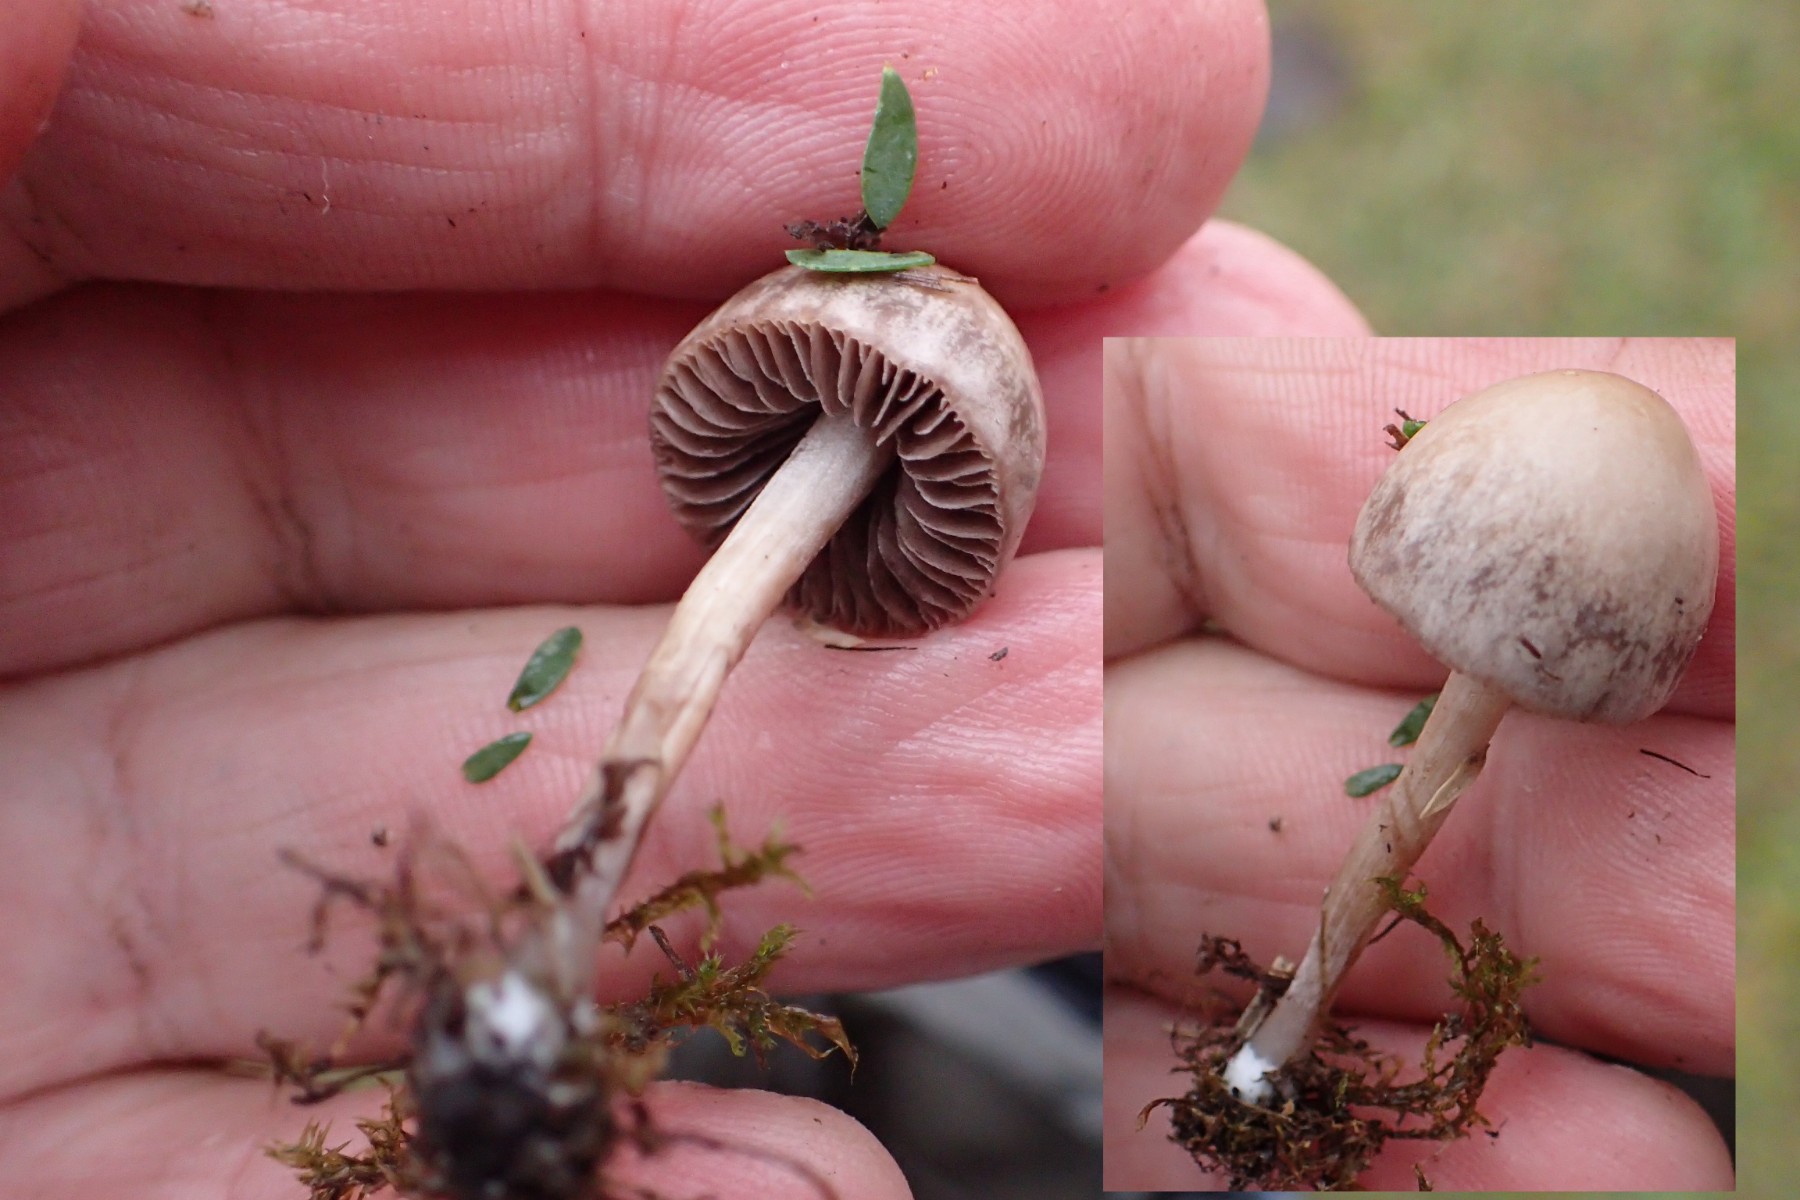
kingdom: Fungi
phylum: Basidiomycota
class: Agaricomycetes
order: Agaricales
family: Bolbitiaceae
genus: Panaeolina
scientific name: Panaeolina foenisecii
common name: høslætsvamp
